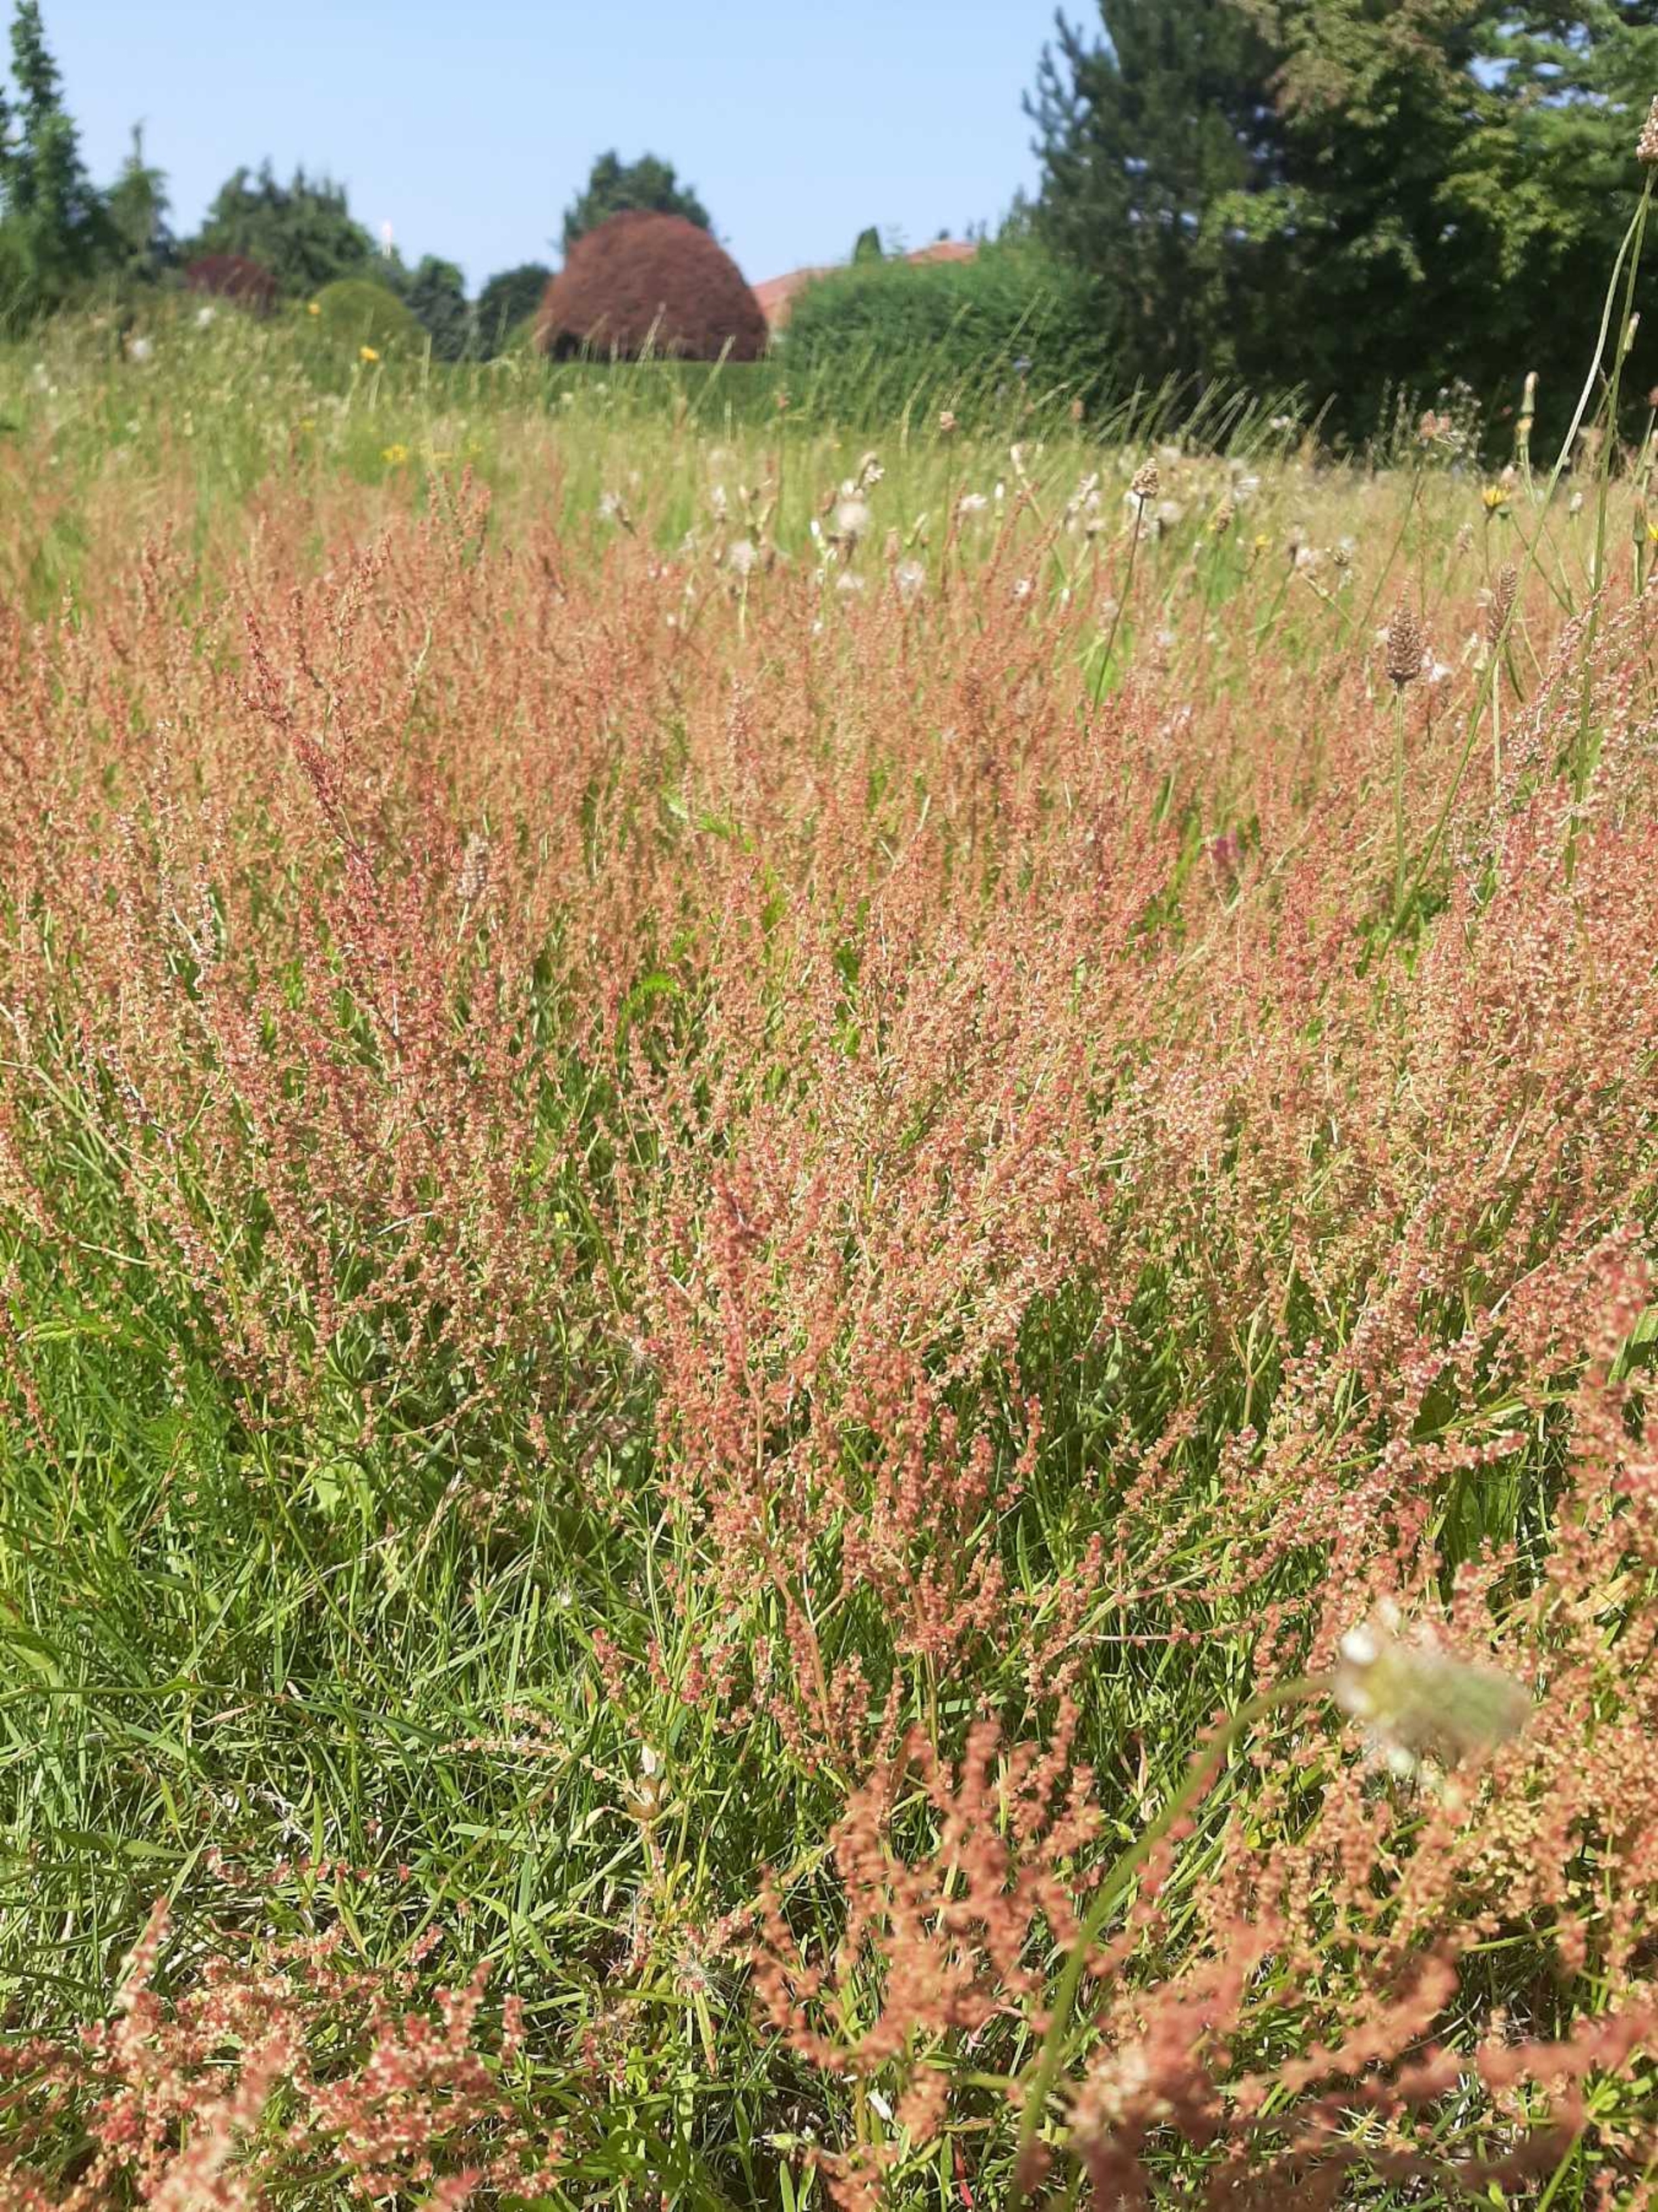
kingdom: Plantae
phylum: Tracheophyta
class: Magnoliopsida
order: Caryophyllales
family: Polygonaceae
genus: Rumex
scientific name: Rumex acetosella
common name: Rødknæ
